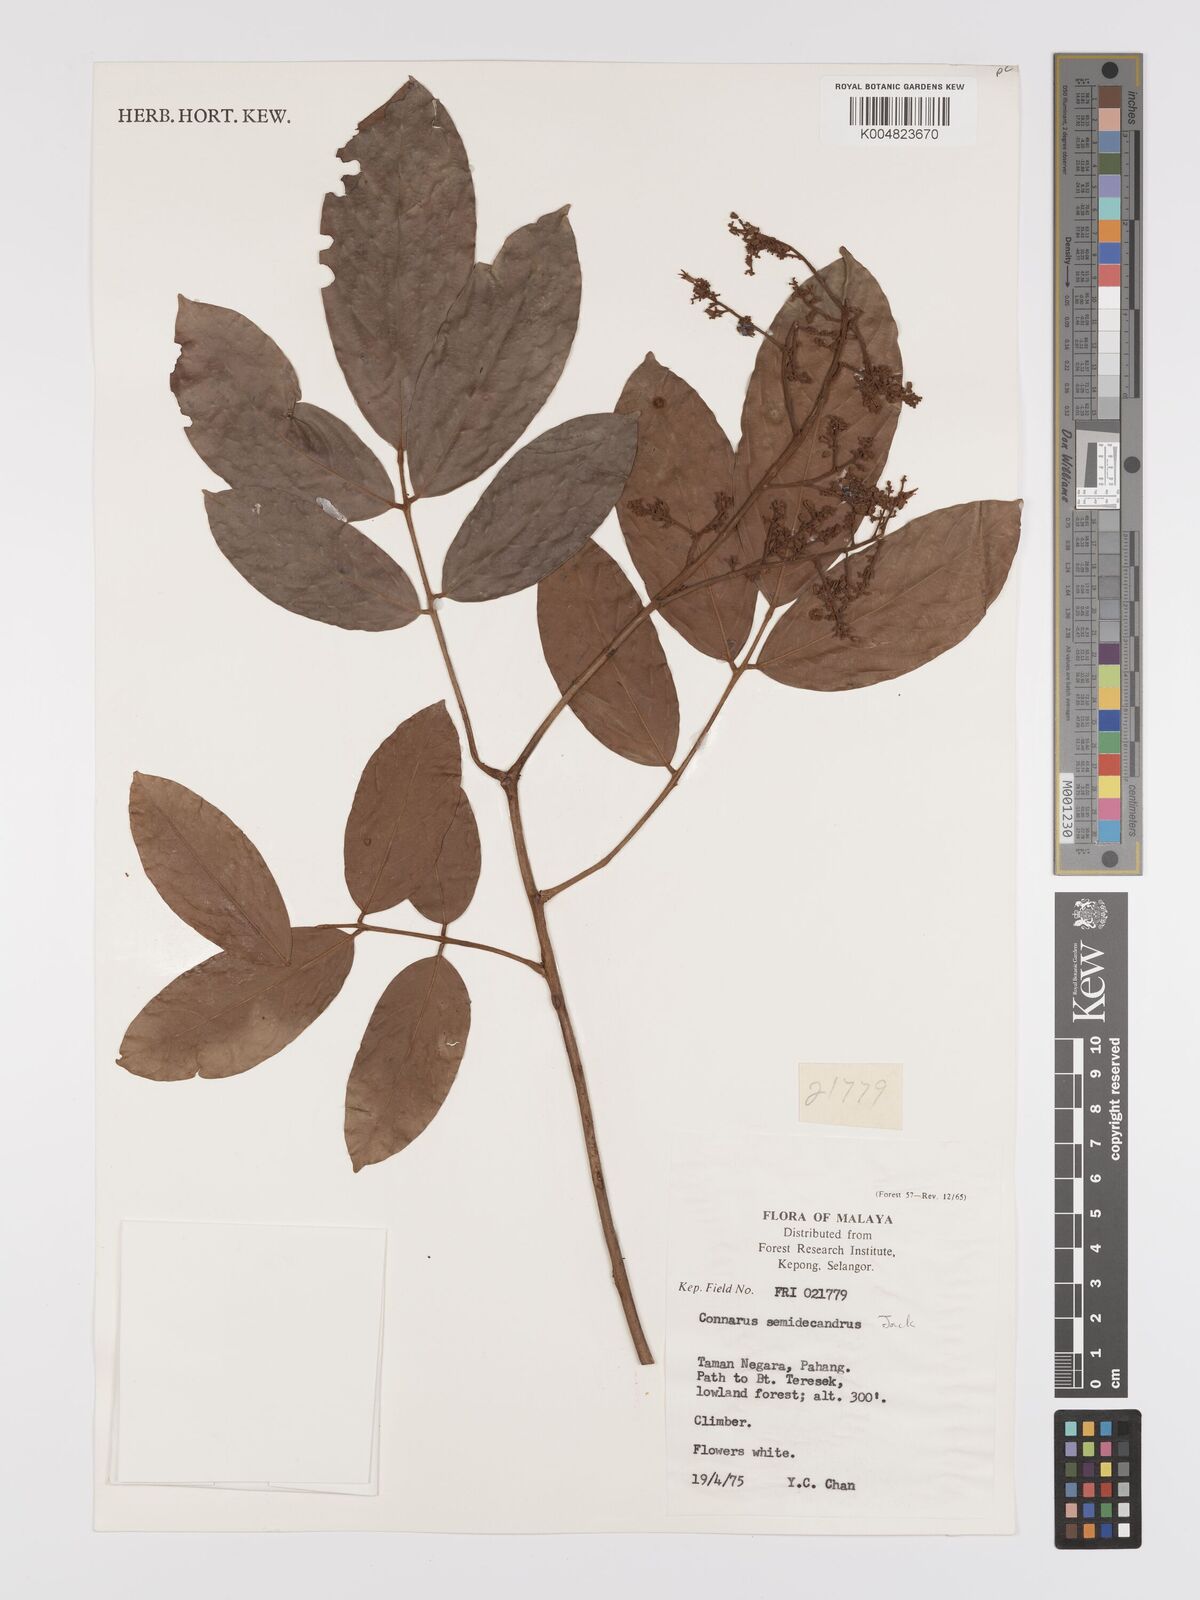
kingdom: Plantae
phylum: Tracheophyta
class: Magnoliopsida
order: Oxalidales
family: Connaraceae
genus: Connarus
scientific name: Connarus semidecandrus
